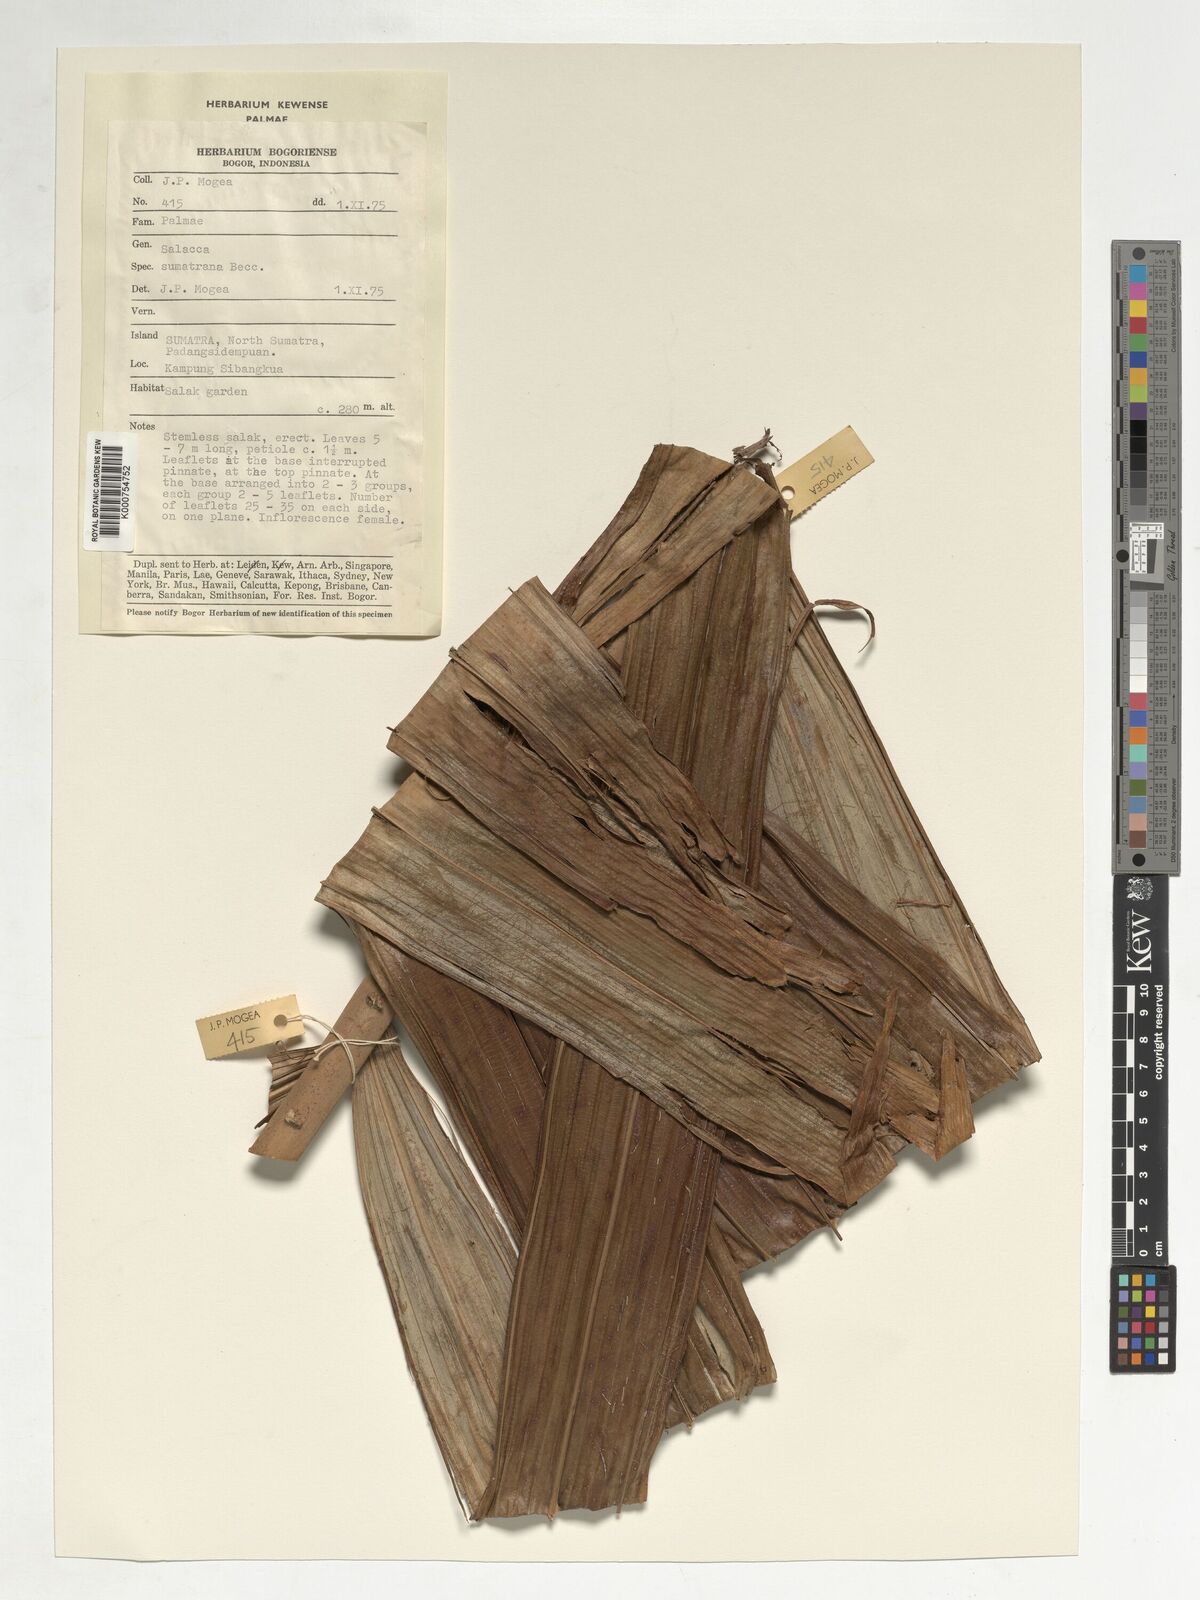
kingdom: Plantae
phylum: Tracheophyta
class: Liliopsida
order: Arecales
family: Arecaceae
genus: Salacca
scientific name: Salacca sumatrana
